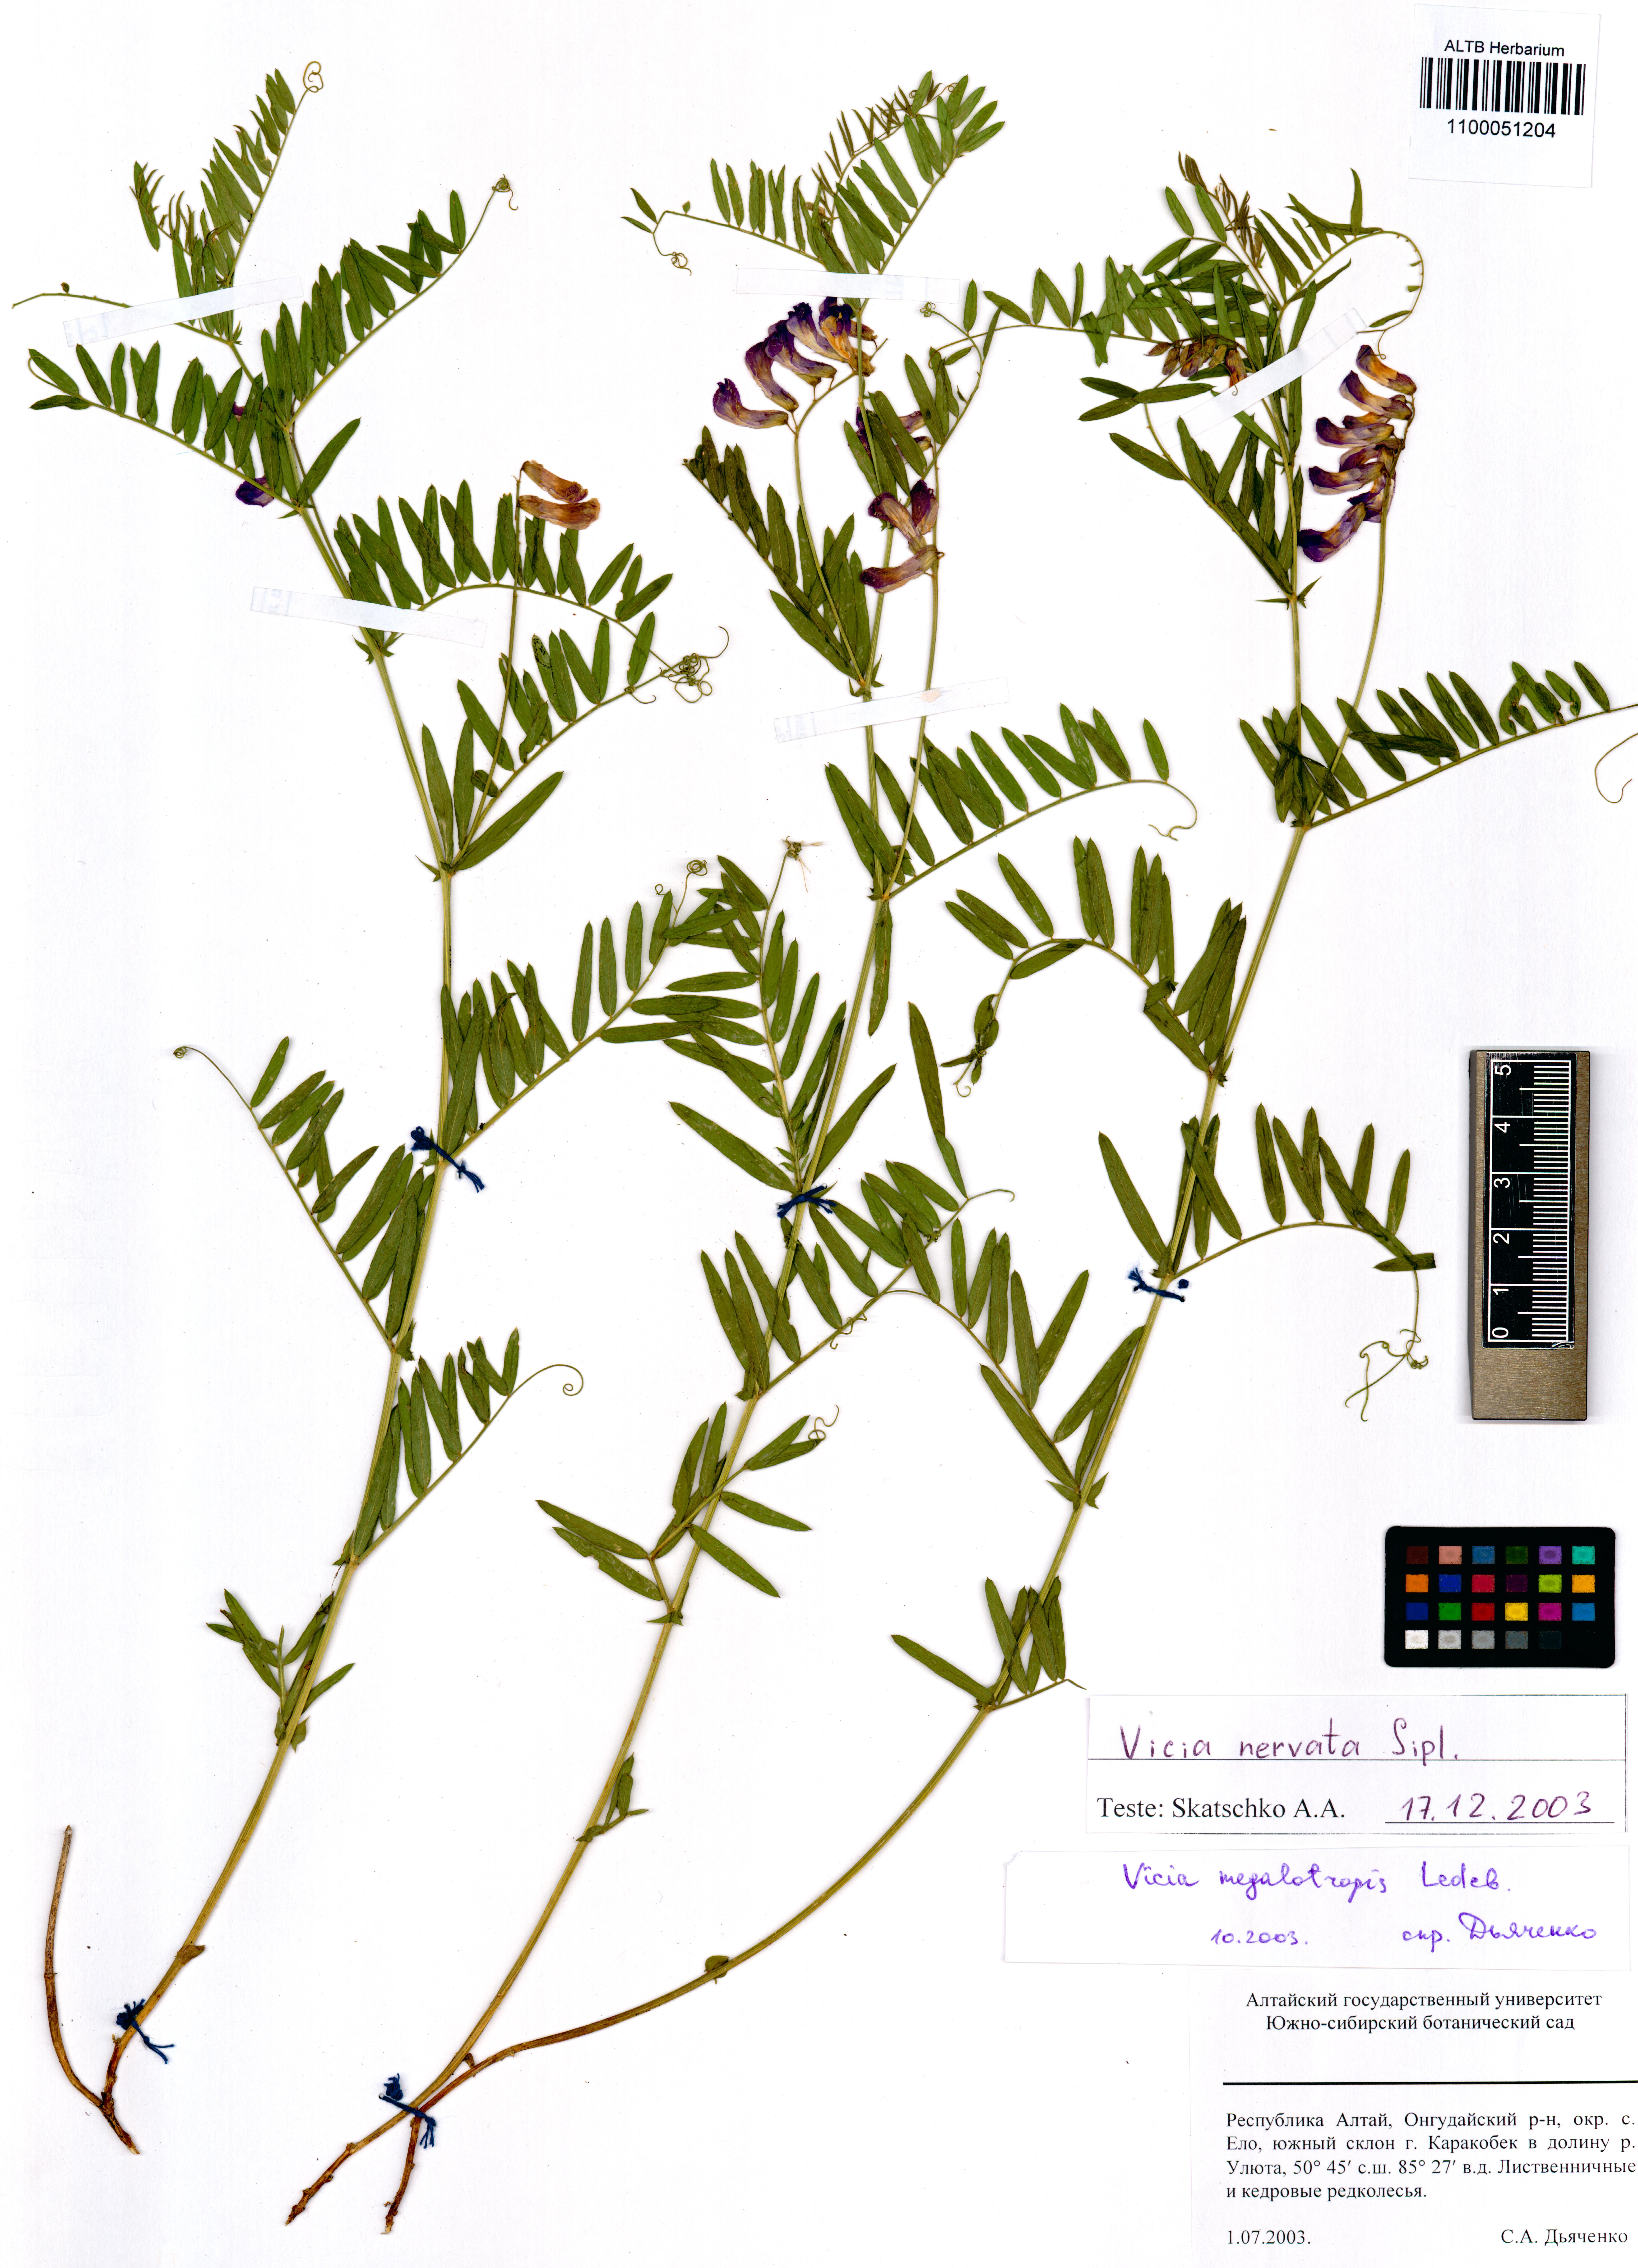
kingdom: Plantae
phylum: Tracheophyta
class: Magnoliopsida
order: Fabales
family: Fabaceae
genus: Vicia
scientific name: Vicia multicaulis
